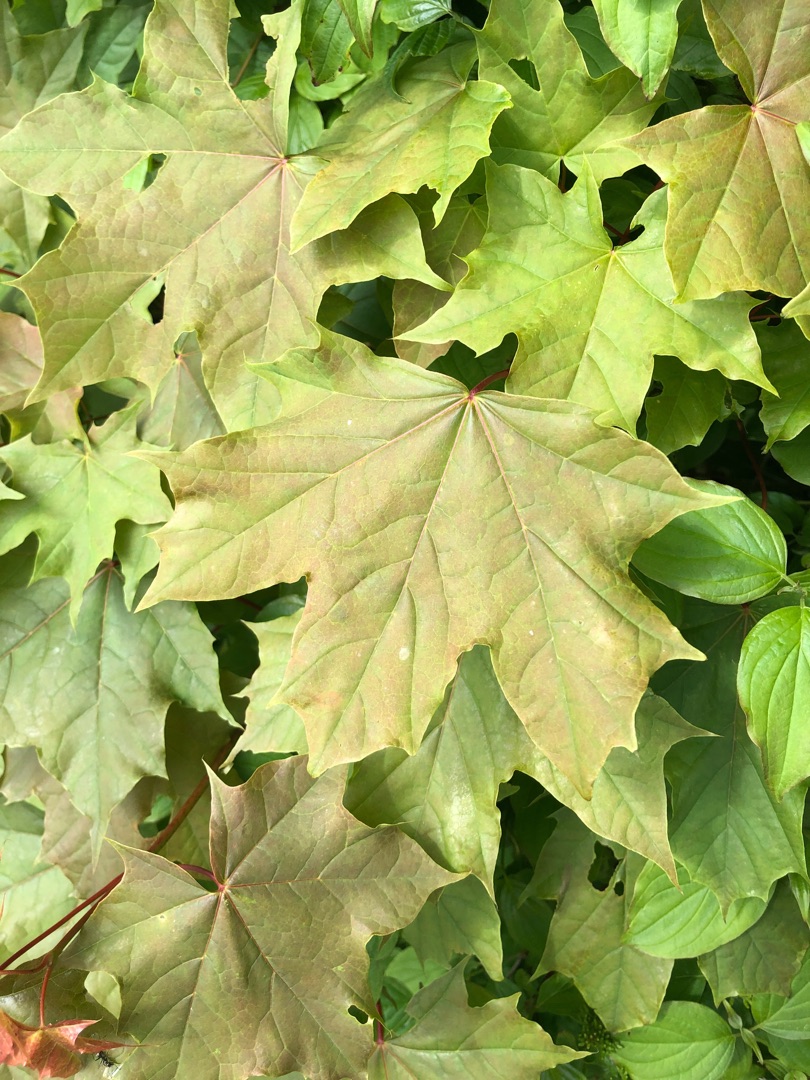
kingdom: Plantae
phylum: Tracheophyta
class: Magnoliopsida
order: Sapindales
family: Sapindaceae
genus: Acer
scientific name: Acer platanoides
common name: Spids-løn
